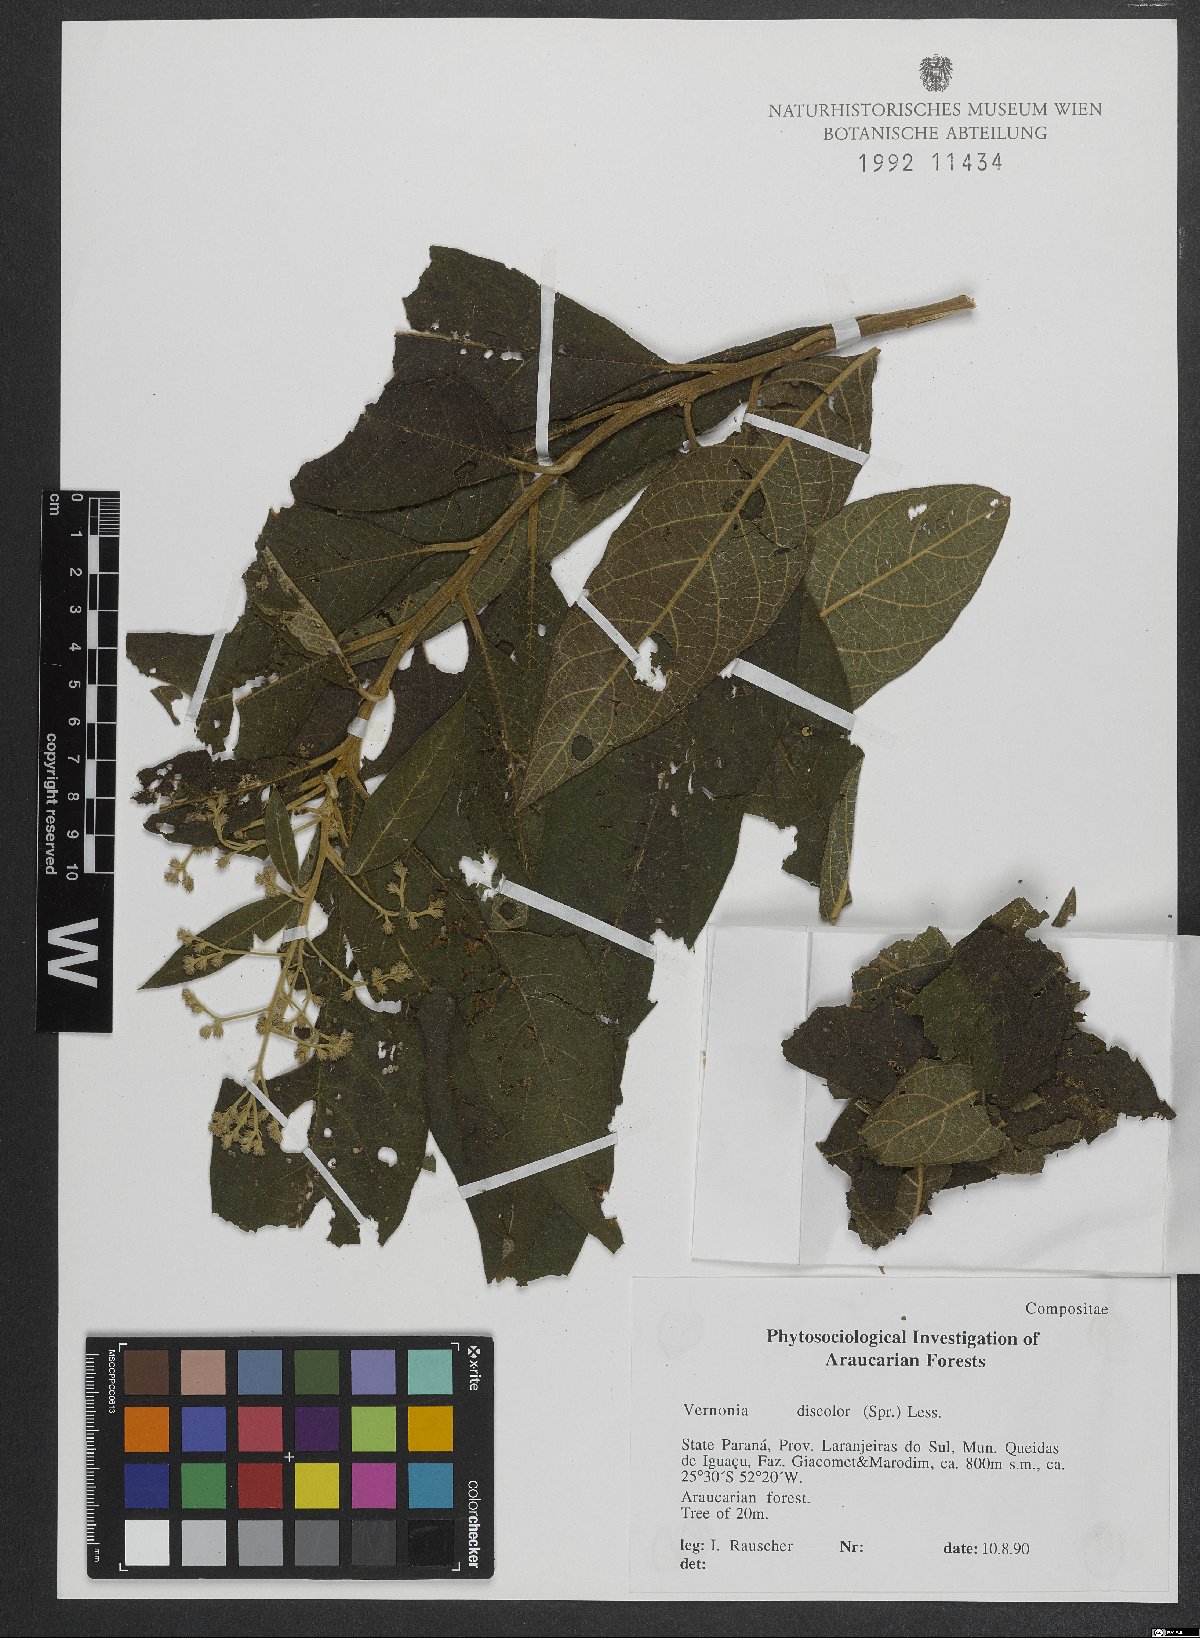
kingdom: Plantae
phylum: Tracheophyta
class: Magnoliopsida
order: Asterales
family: Asteraceae
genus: Vernonanthura
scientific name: Vernonanthura discolor
